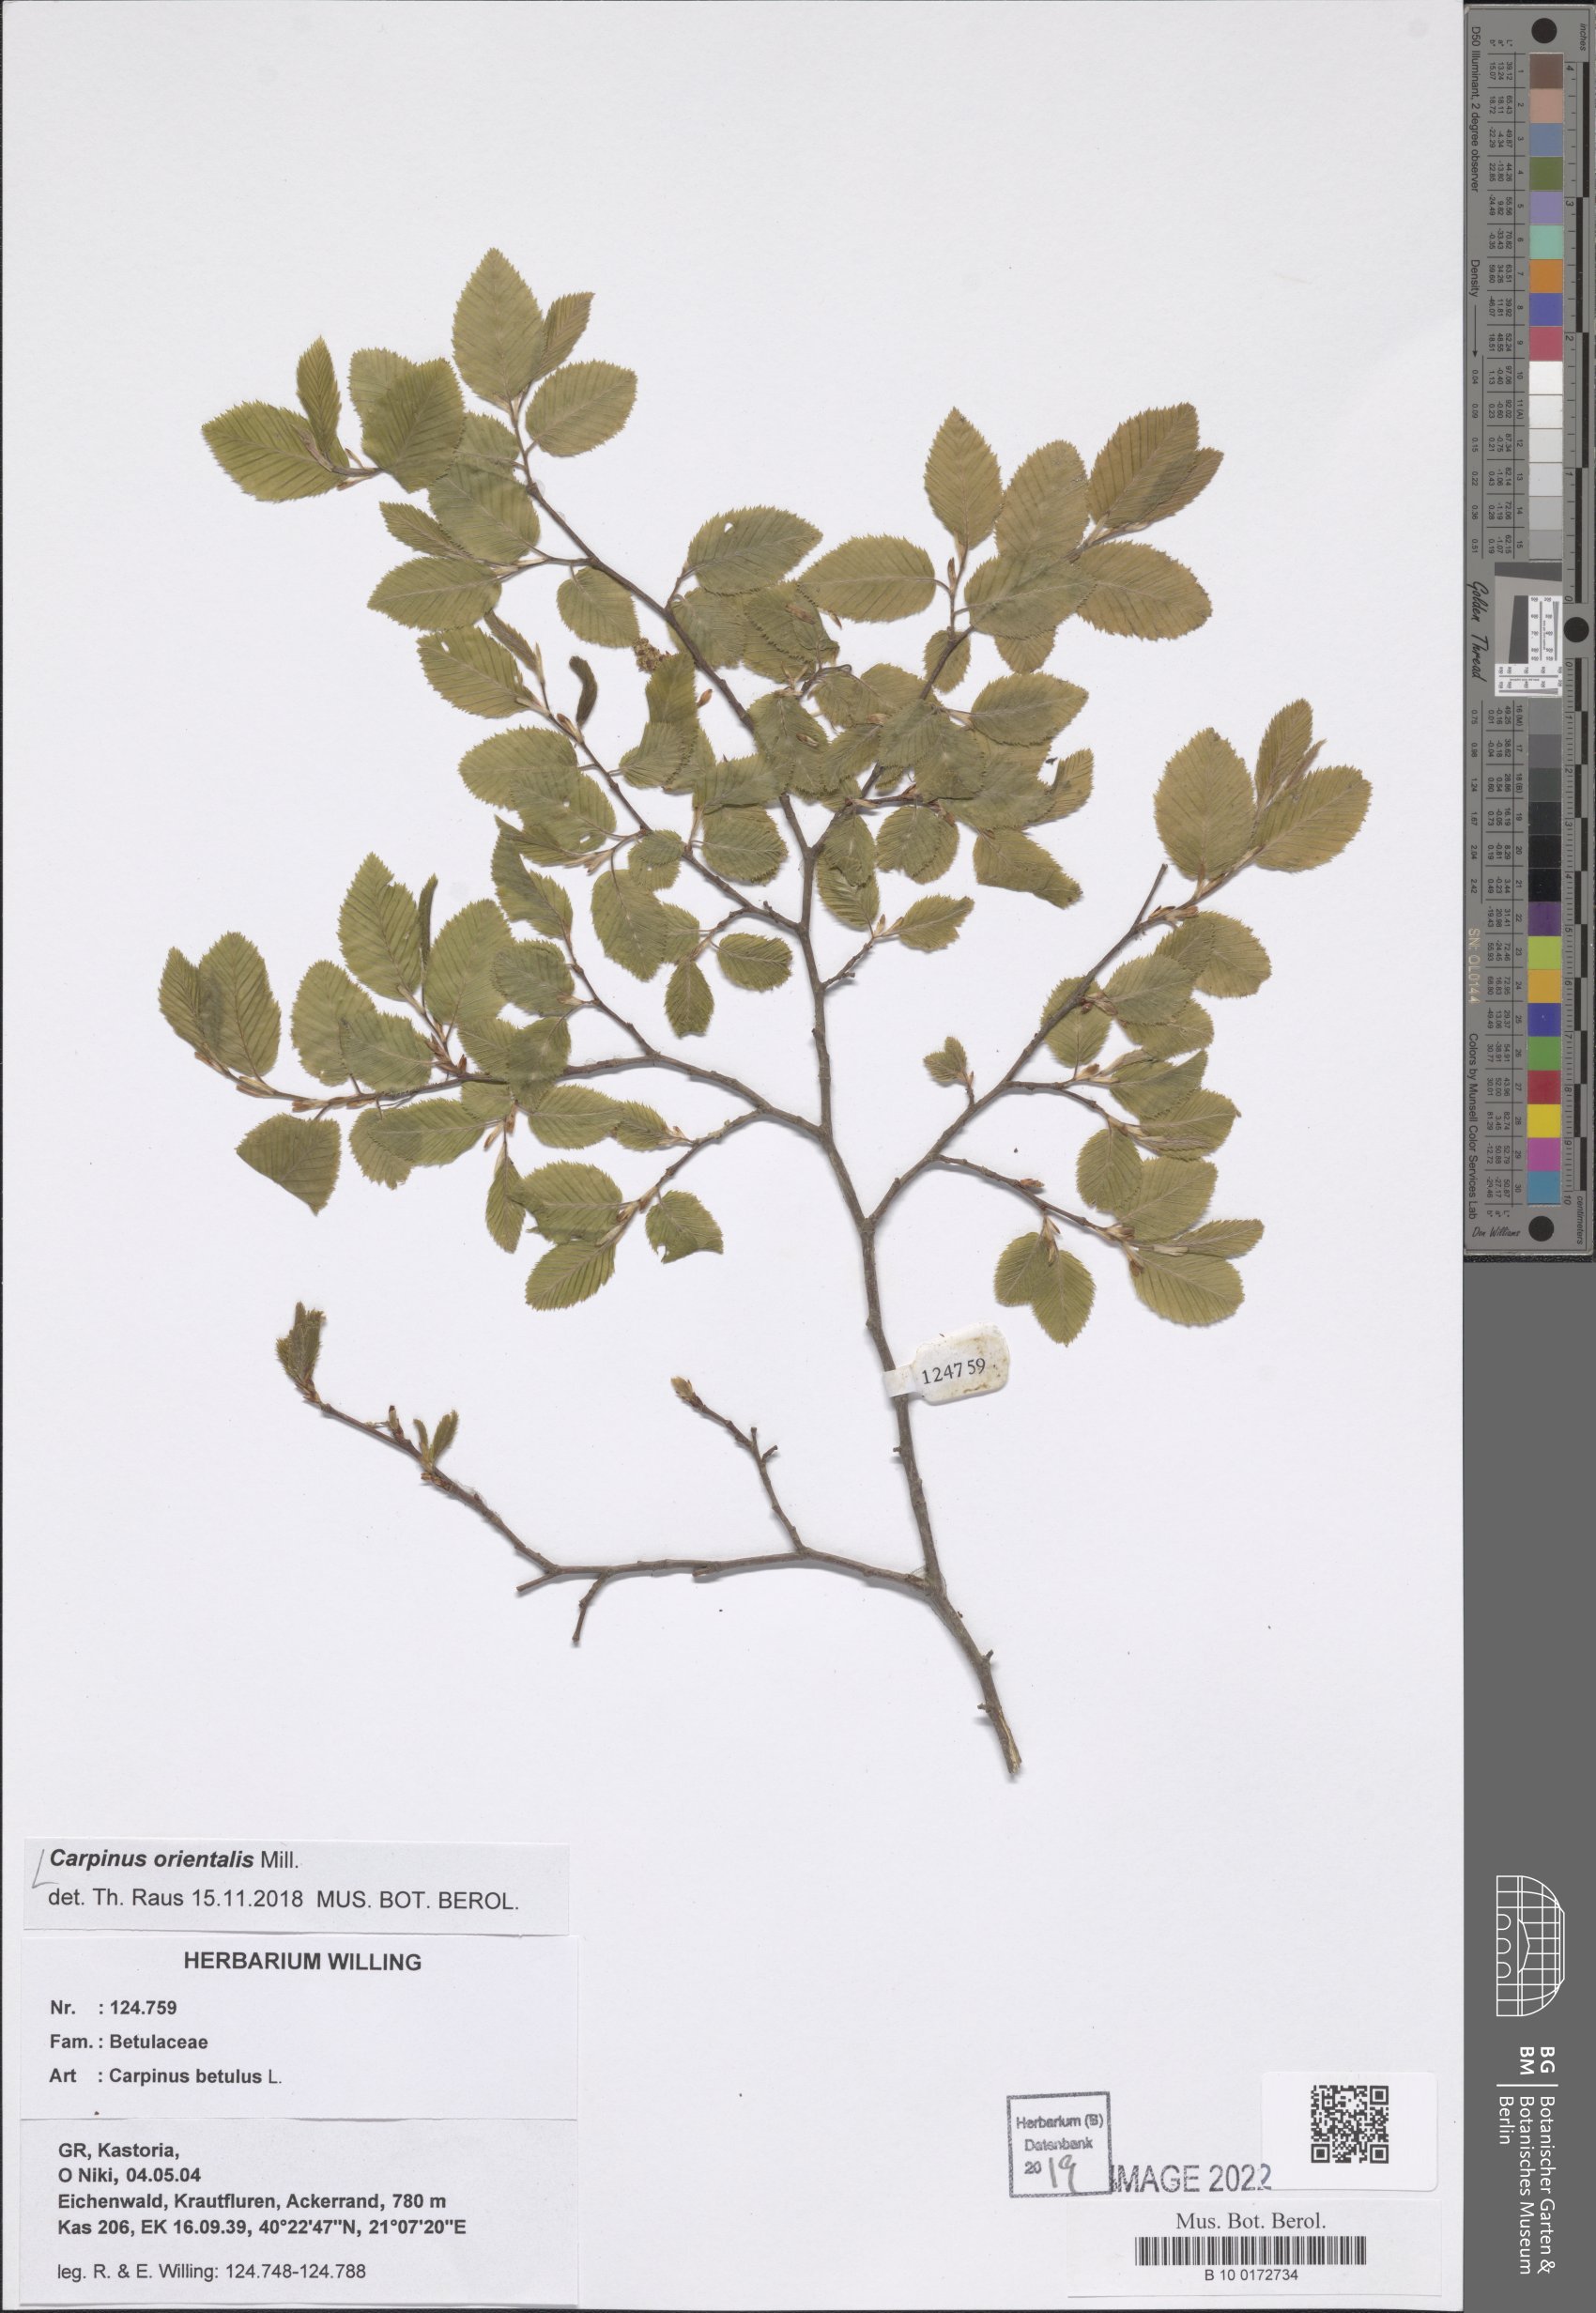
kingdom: Plantae
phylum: Tracheophyta
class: Magnoliopsida
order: Fagales
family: Betulaceae
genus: Carpinus
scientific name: Carpinus orientalis
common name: Eastern hornbeam
